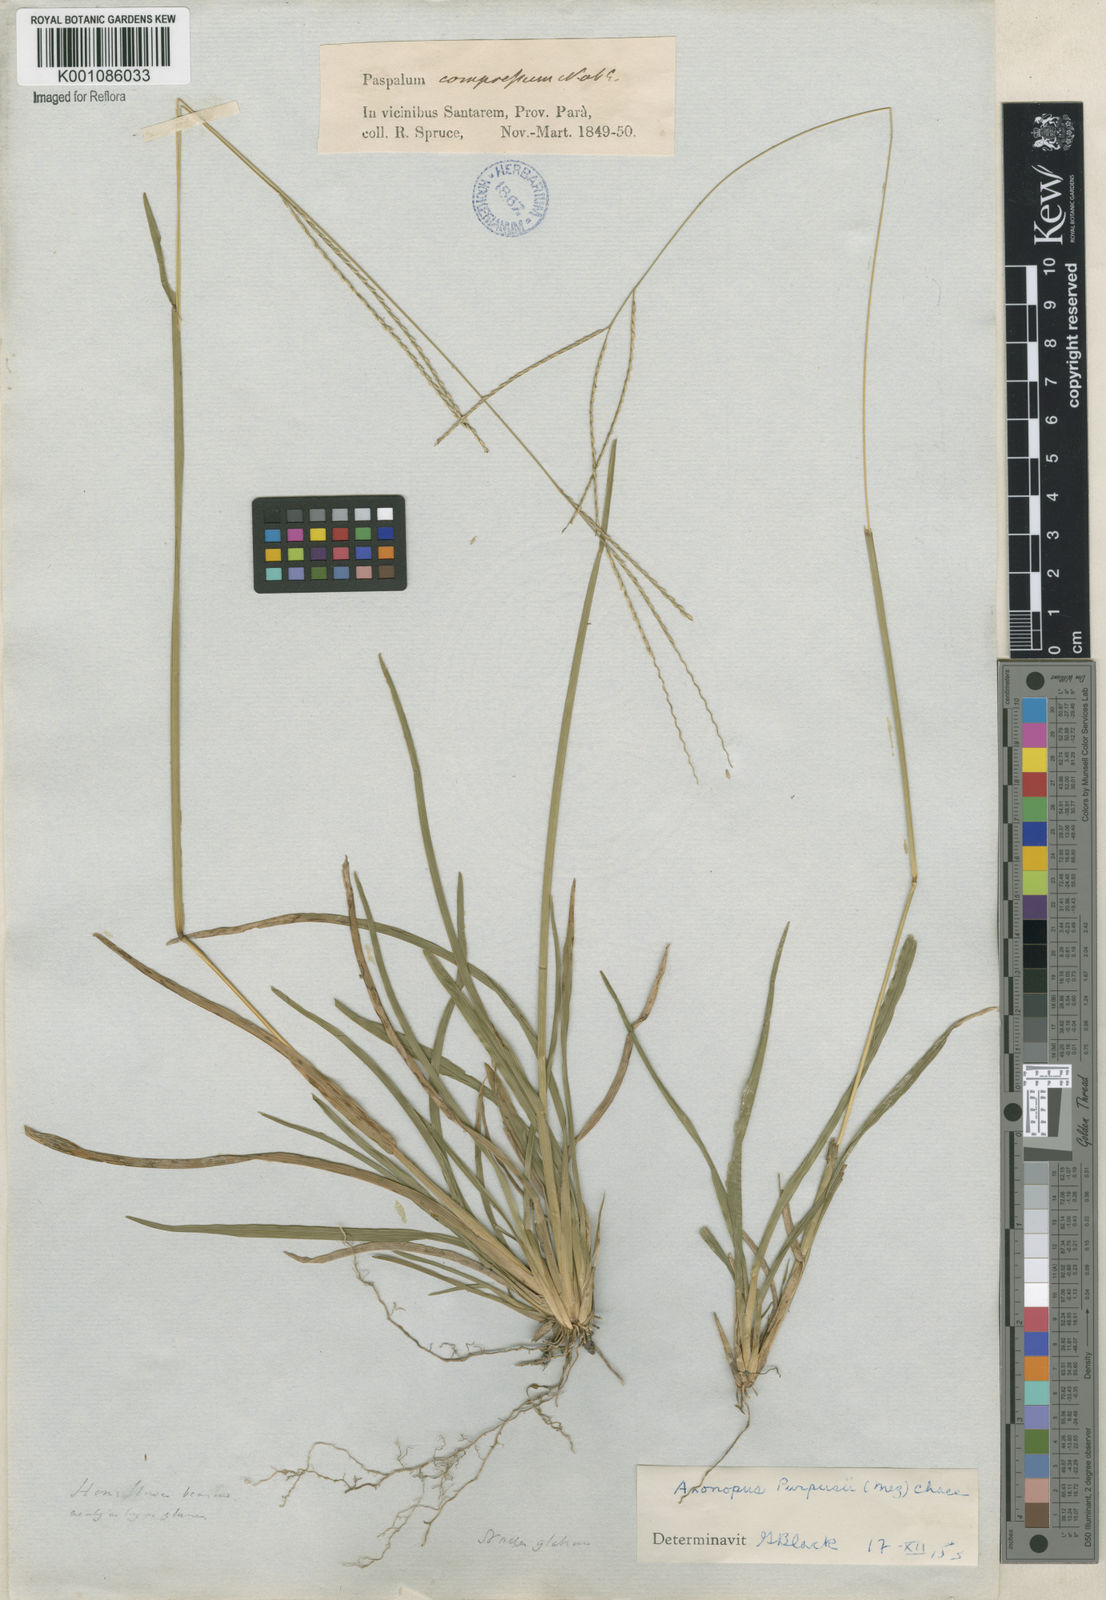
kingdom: Plantae
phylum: Tracheophyta
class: Liliopsida
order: Poales
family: Poaceae
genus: Axonopus
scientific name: Axonopus purpusii
